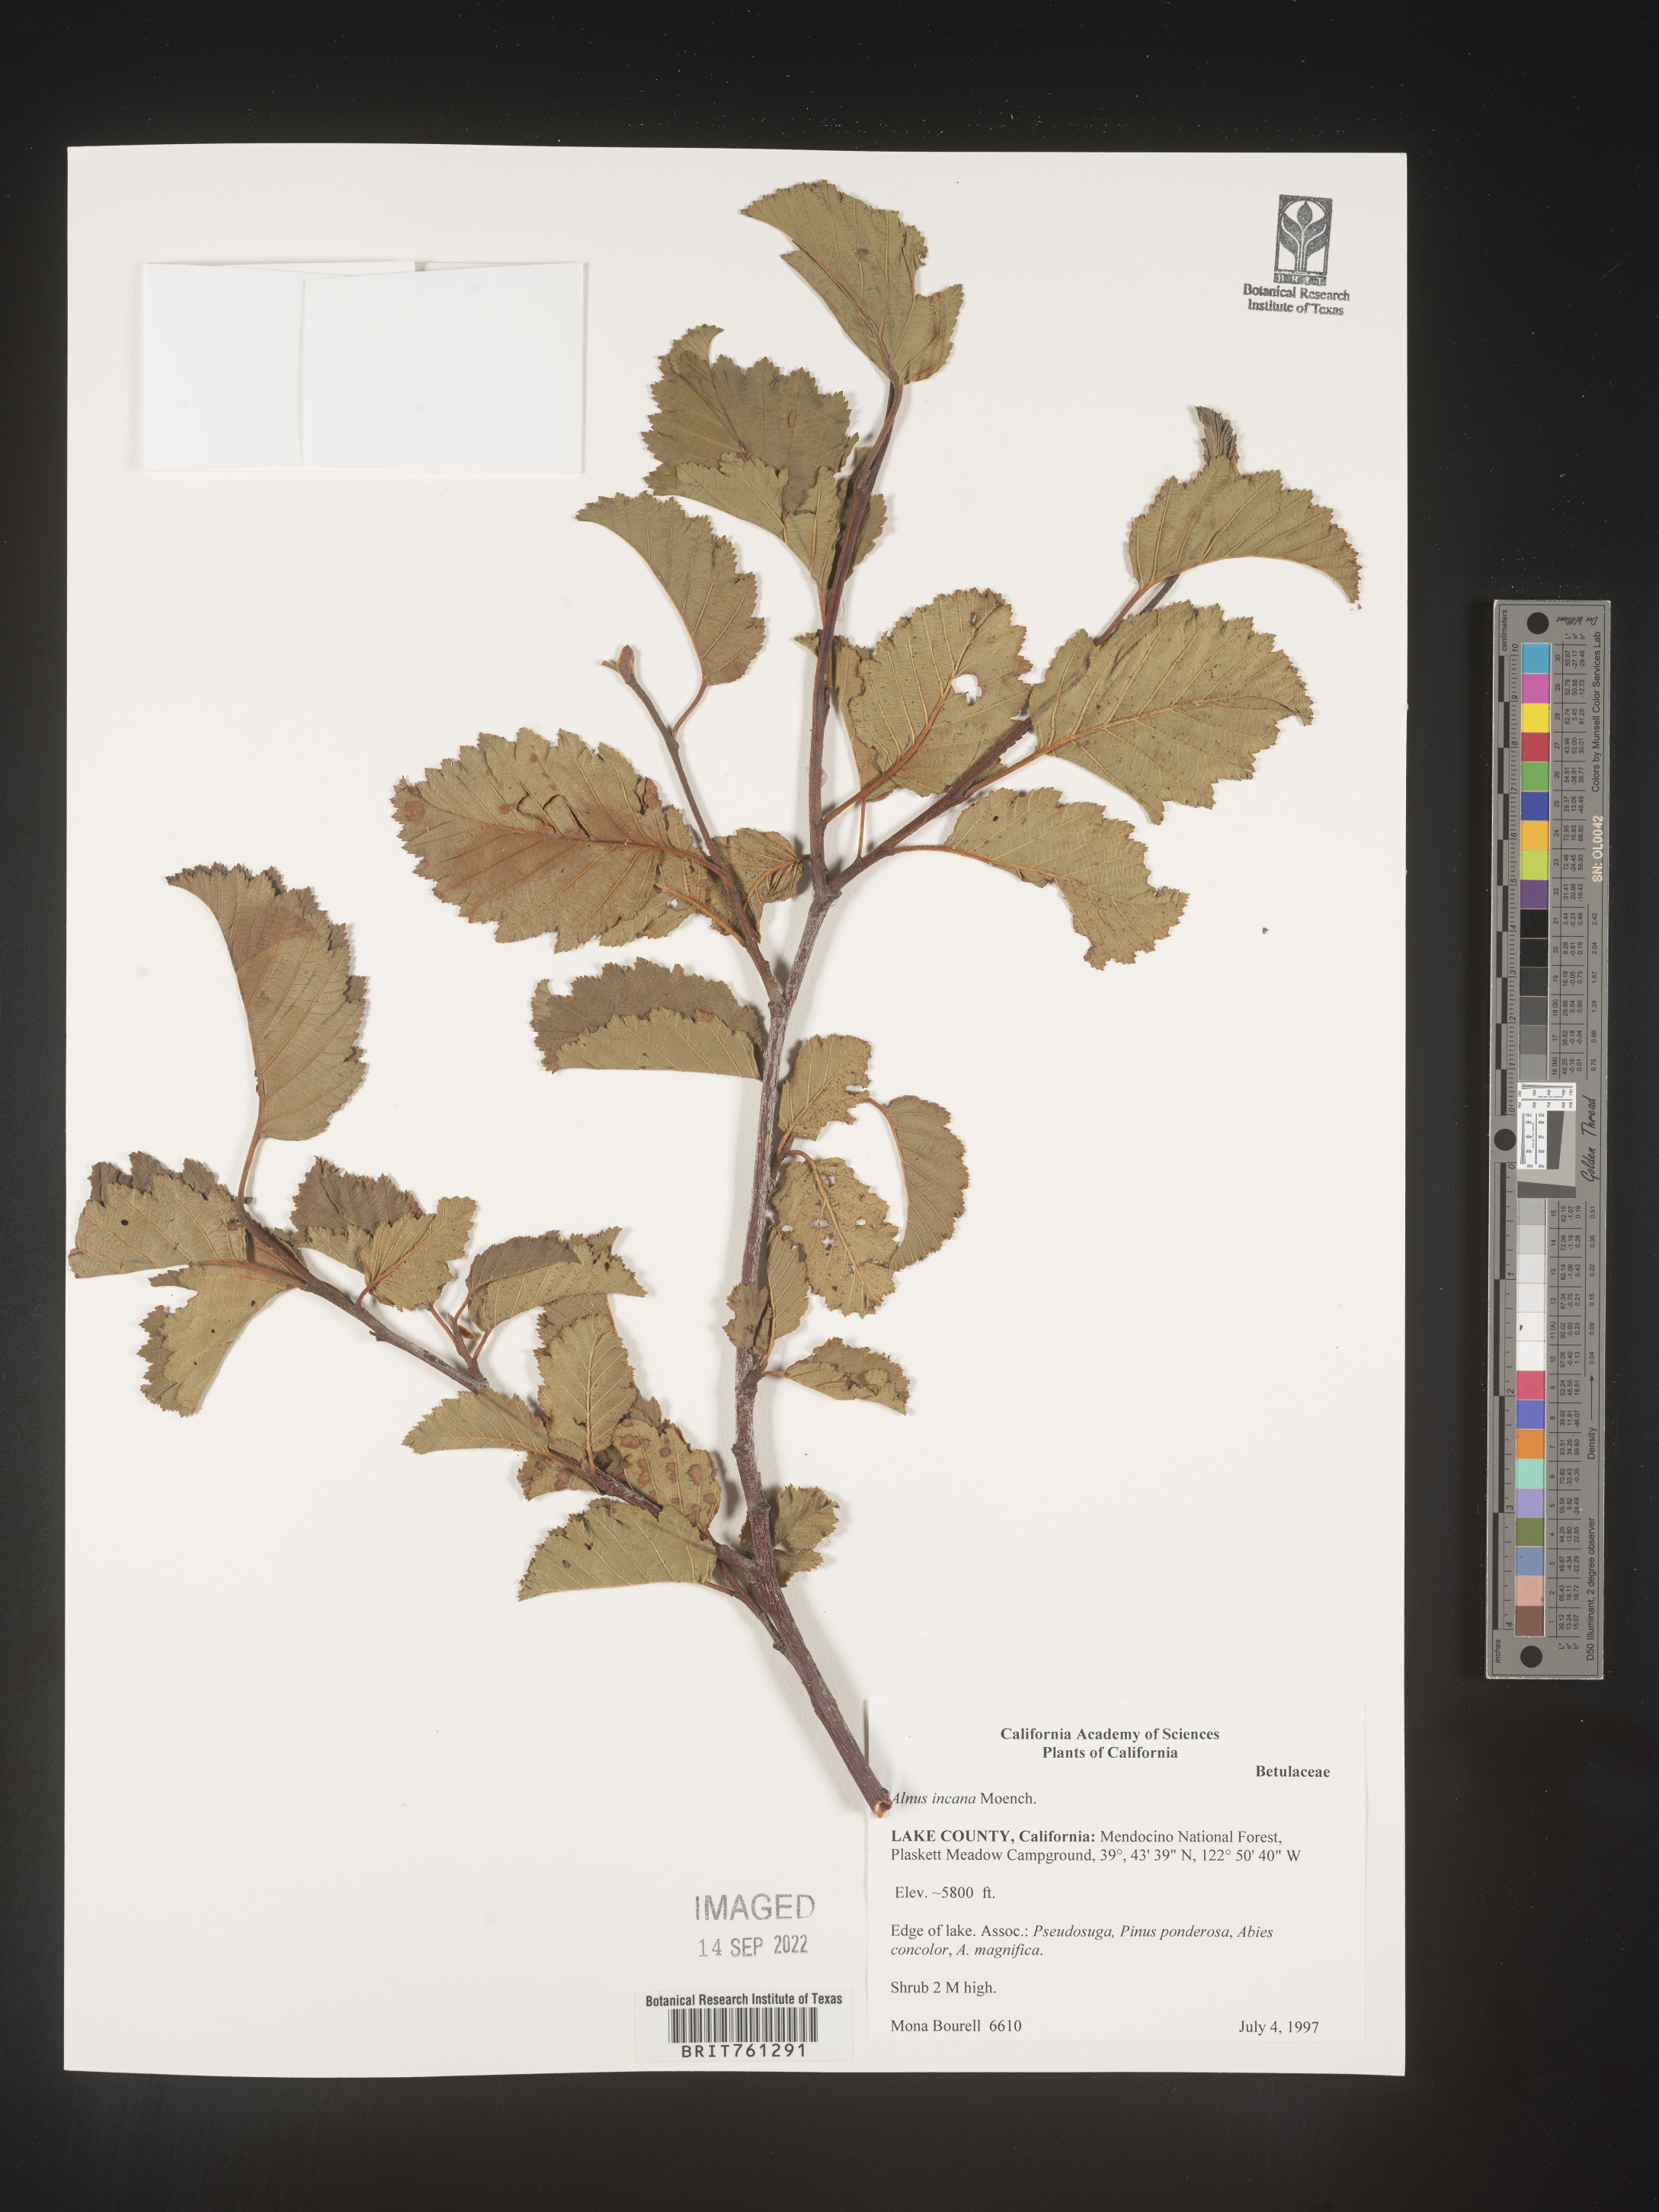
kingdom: Plantae
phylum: Tracheophyta
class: Magnoliopsida
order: Fagales
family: Betulaceae
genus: Alnus
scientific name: Alnus incana
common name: Grey alder
